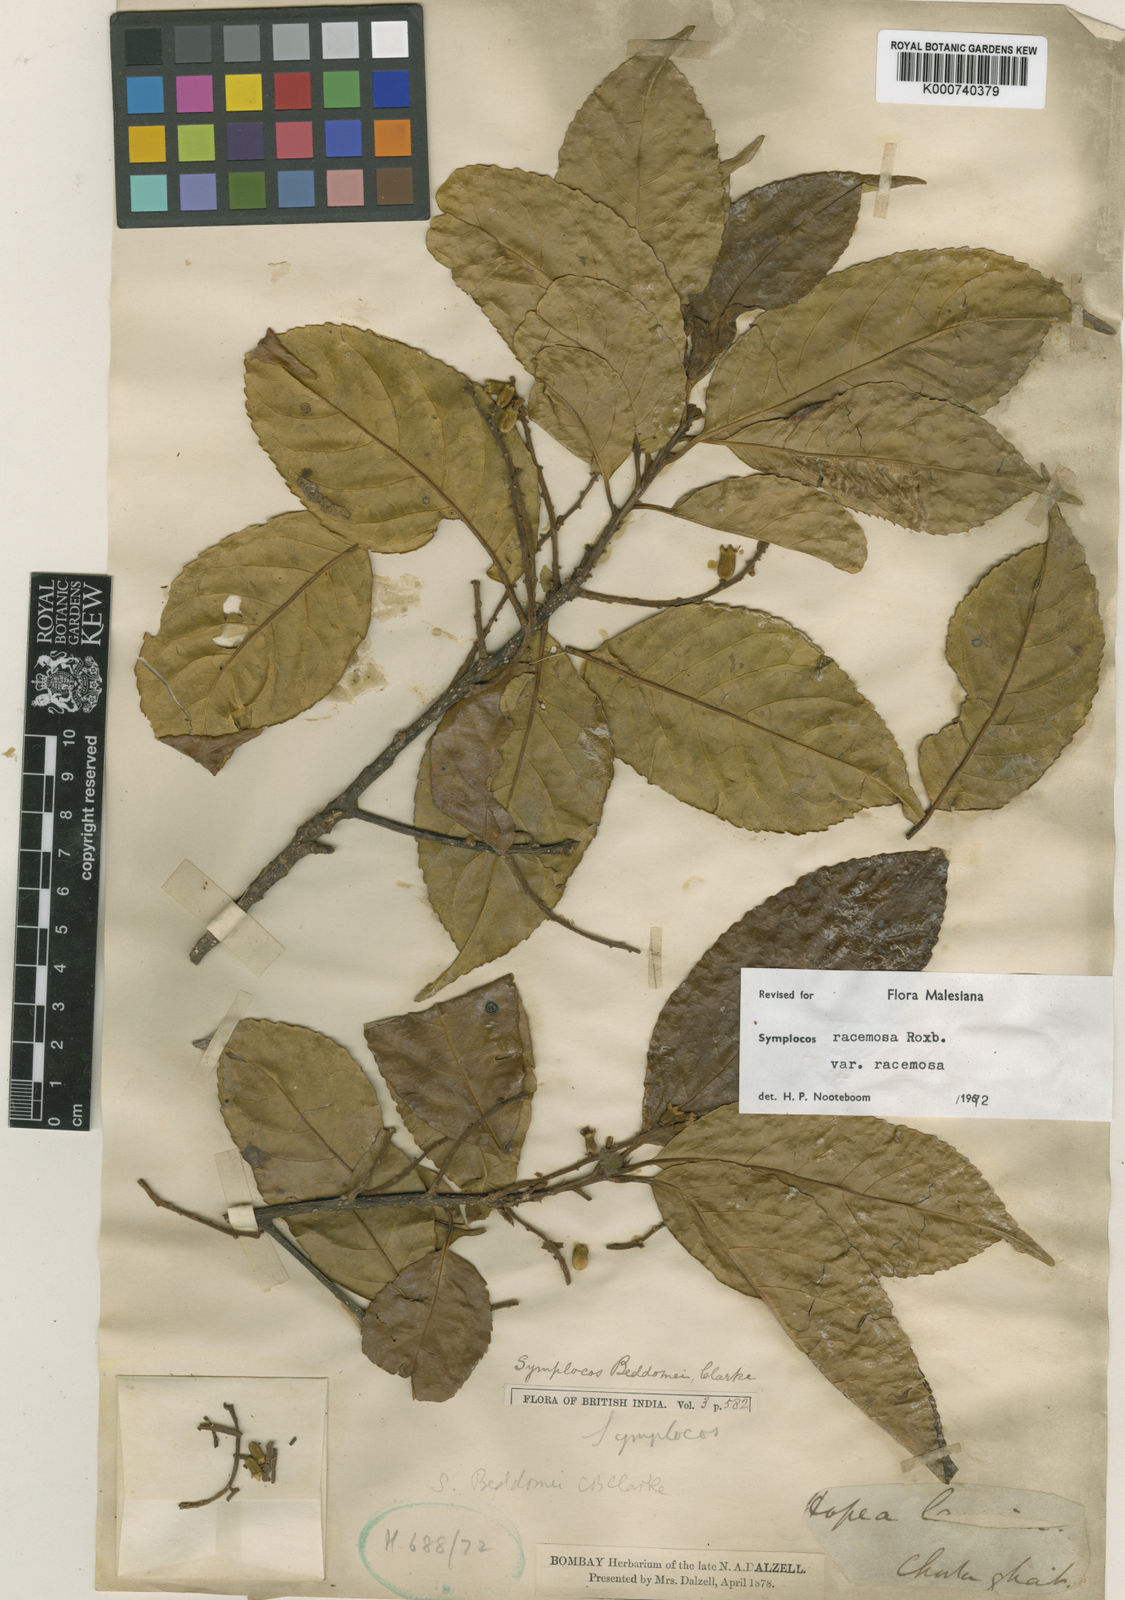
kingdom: Plantae
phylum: Tracheophyta
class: Magnoliopsida
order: Ericales
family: Symplocaceae
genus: Symplocos
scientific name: Symplocos racemosa
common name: Lodhtree
